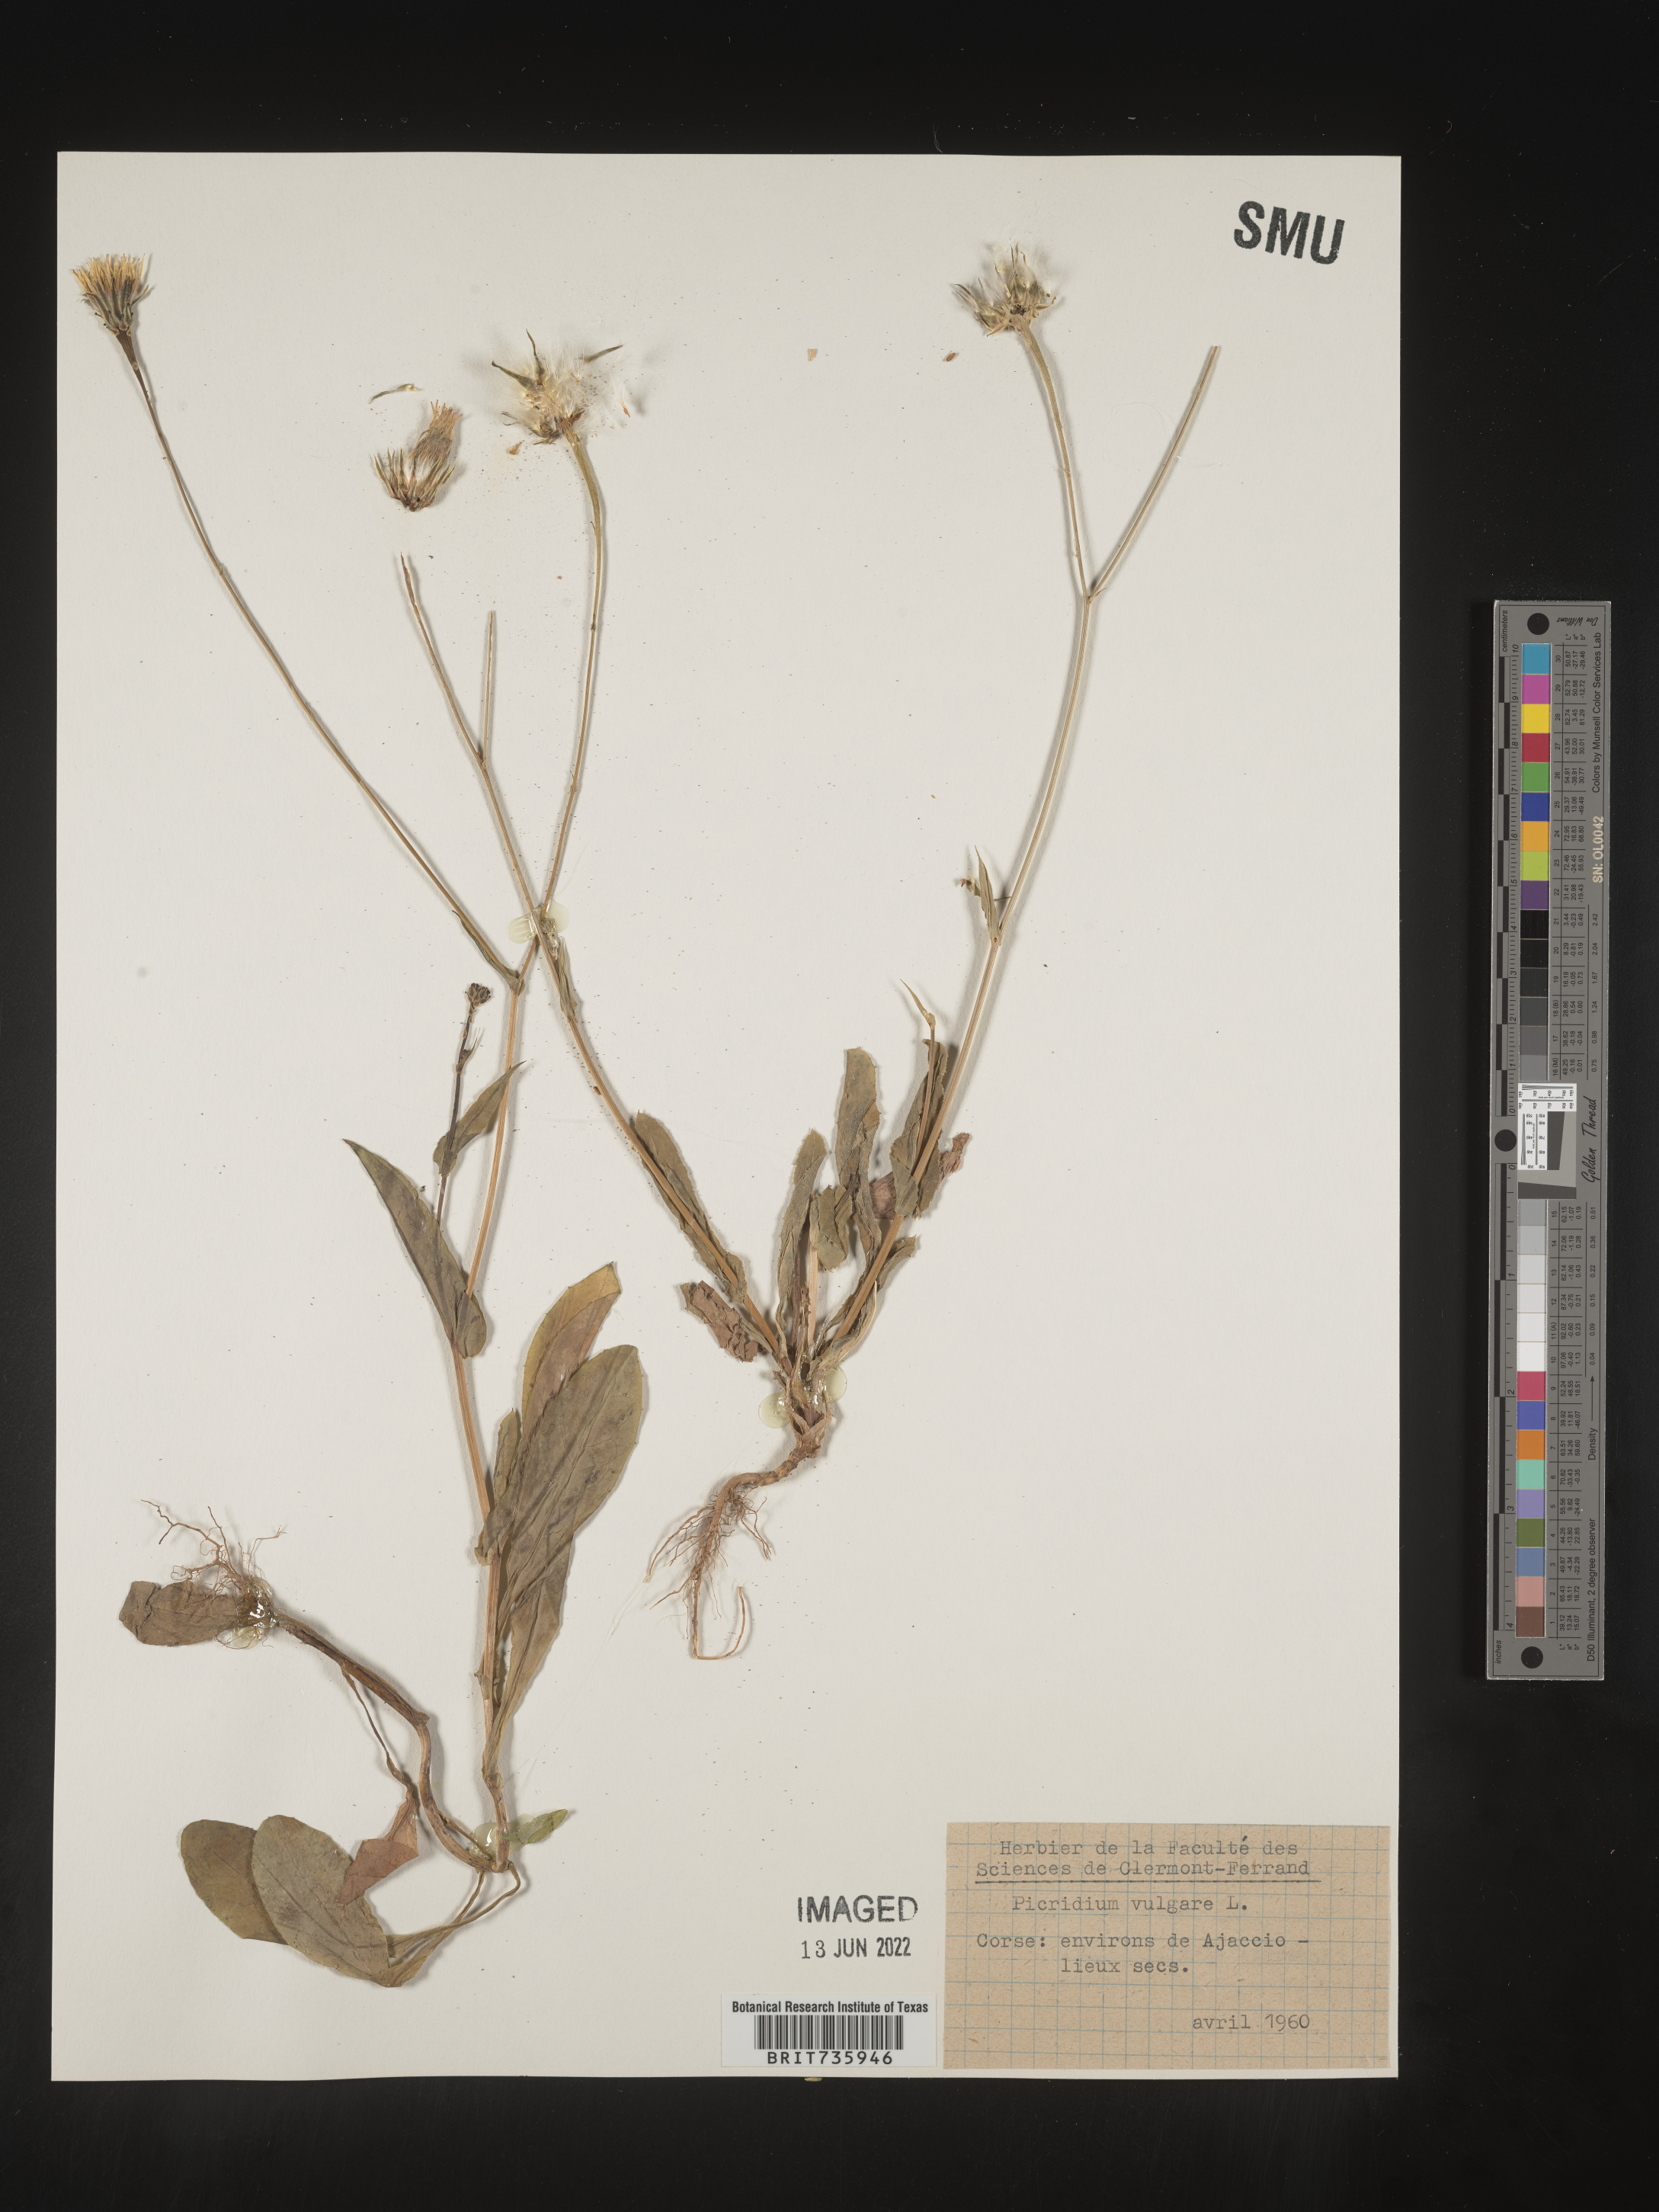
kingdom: Plantae
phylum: Tracheophyta
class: Magnoliopsida
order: Asterales
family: Asteraceae
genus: Reichardia
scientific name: Reichardia
